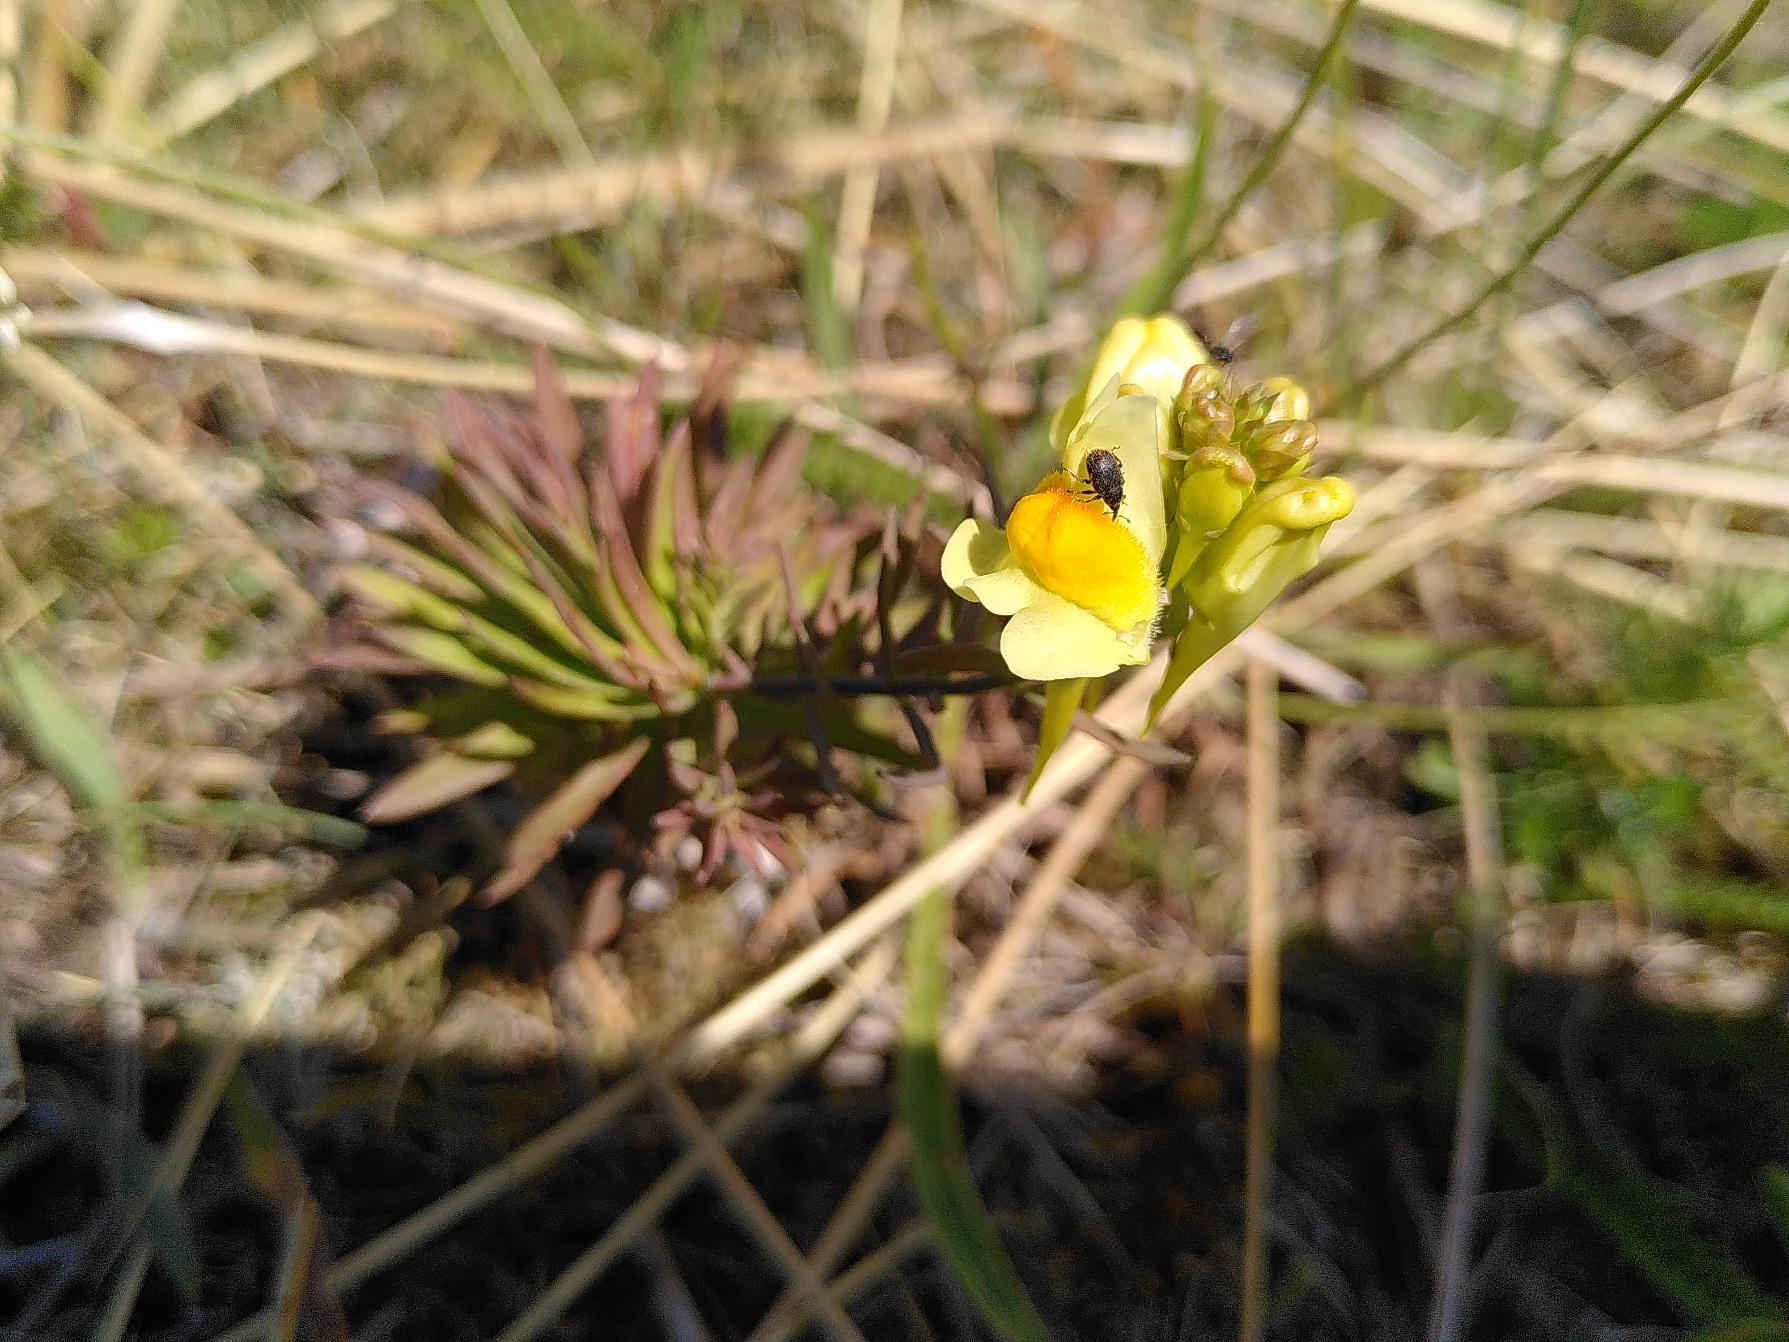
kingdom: Plantae
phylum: Tracheophyta
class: Magnoliopsida
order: Lamiales
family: Plantaginaceae
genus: Linaria
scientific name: Linaria vulgaris
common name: Almindelig torskemund
